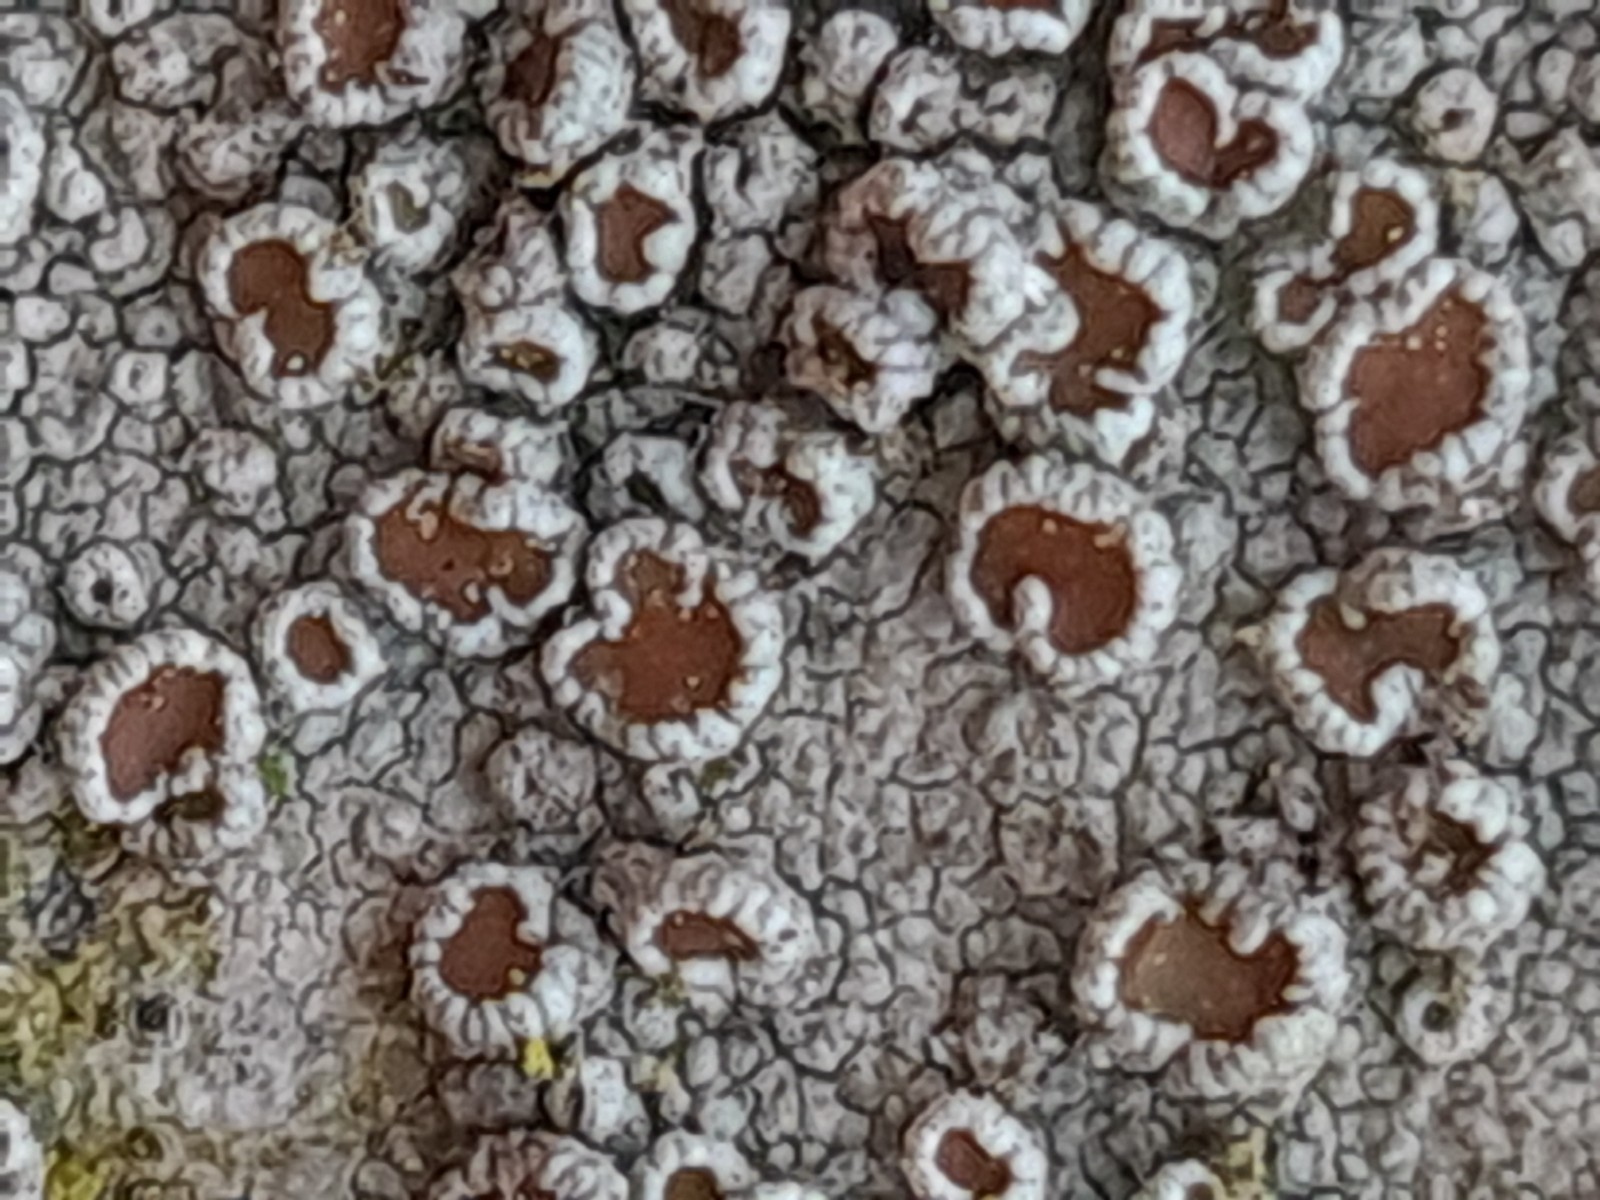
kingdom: Fungi
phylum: Ascomycota
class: Lecanoromycetes
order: Lecanorales
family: Lecanoraceae
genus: Lecanora
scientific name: Lecanora
